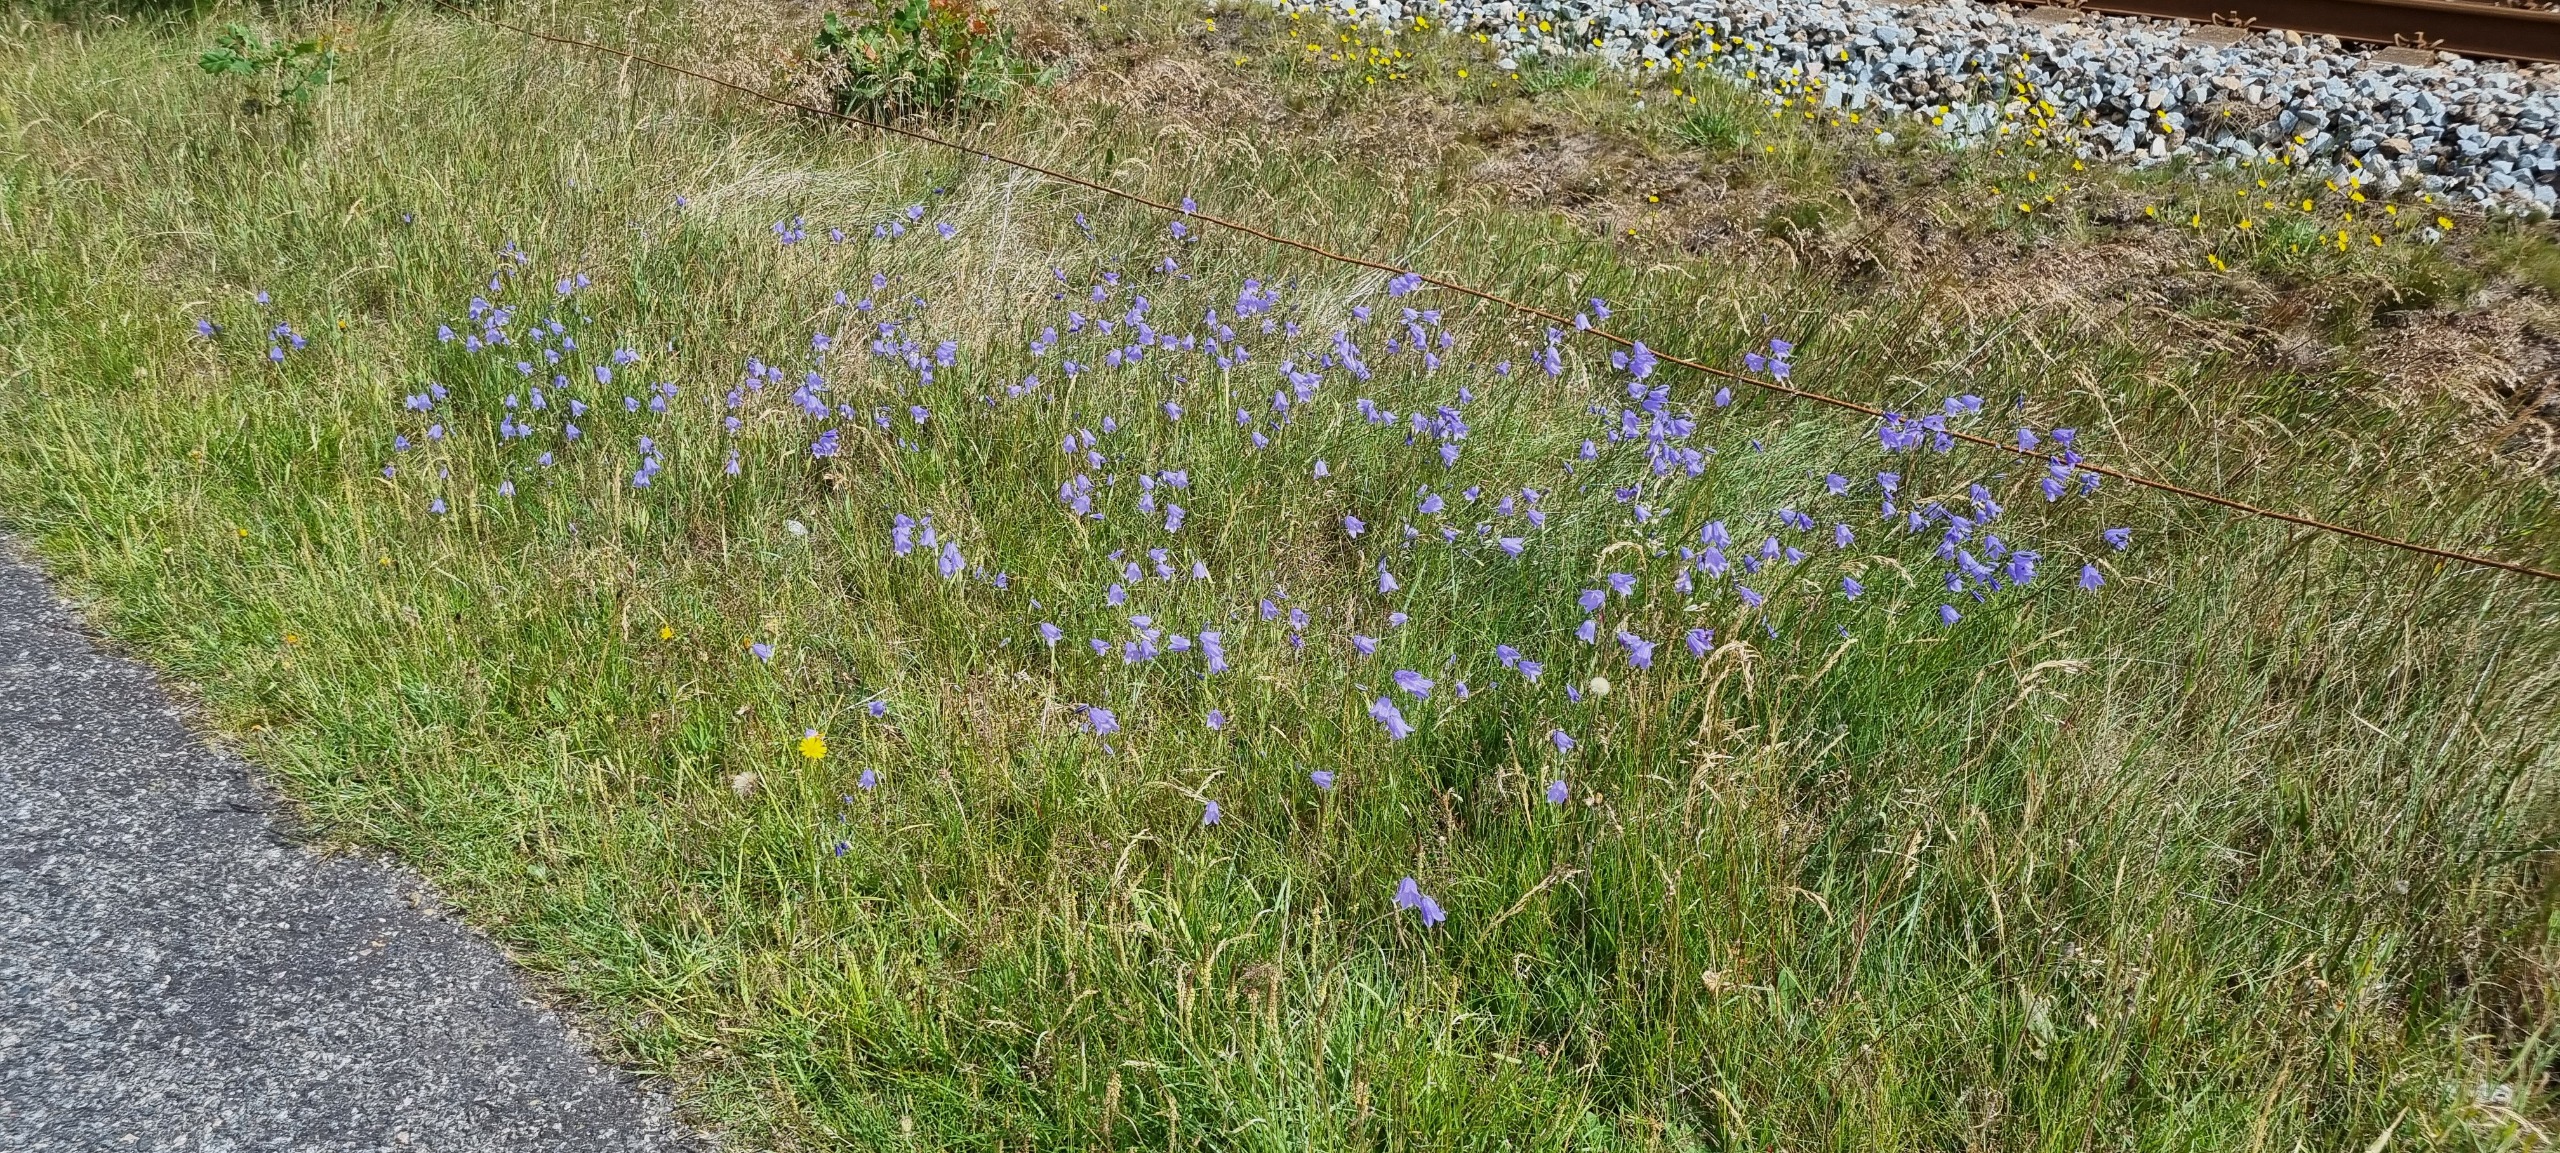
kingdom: Plantae
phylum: Tracheophyta
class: Magnoliopsida
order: Asterales
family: Campanulaceae
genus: Campanula
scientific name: Campanula rotundifolia
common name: Liden klokke
